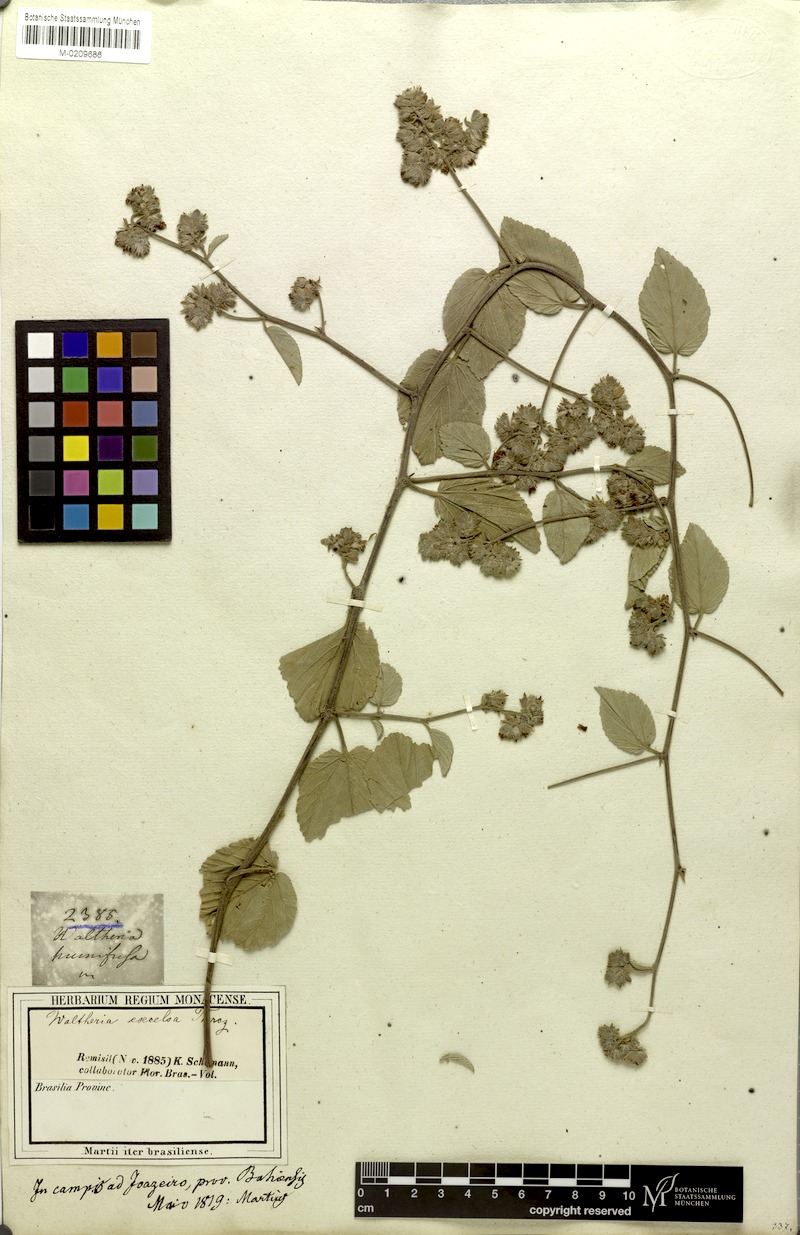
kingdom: Plantae
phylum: Tracheophyta
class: Magnoliopsida
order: Malvales
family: Malvaceae
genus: Waltheria
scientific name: Waltheria excelsa
